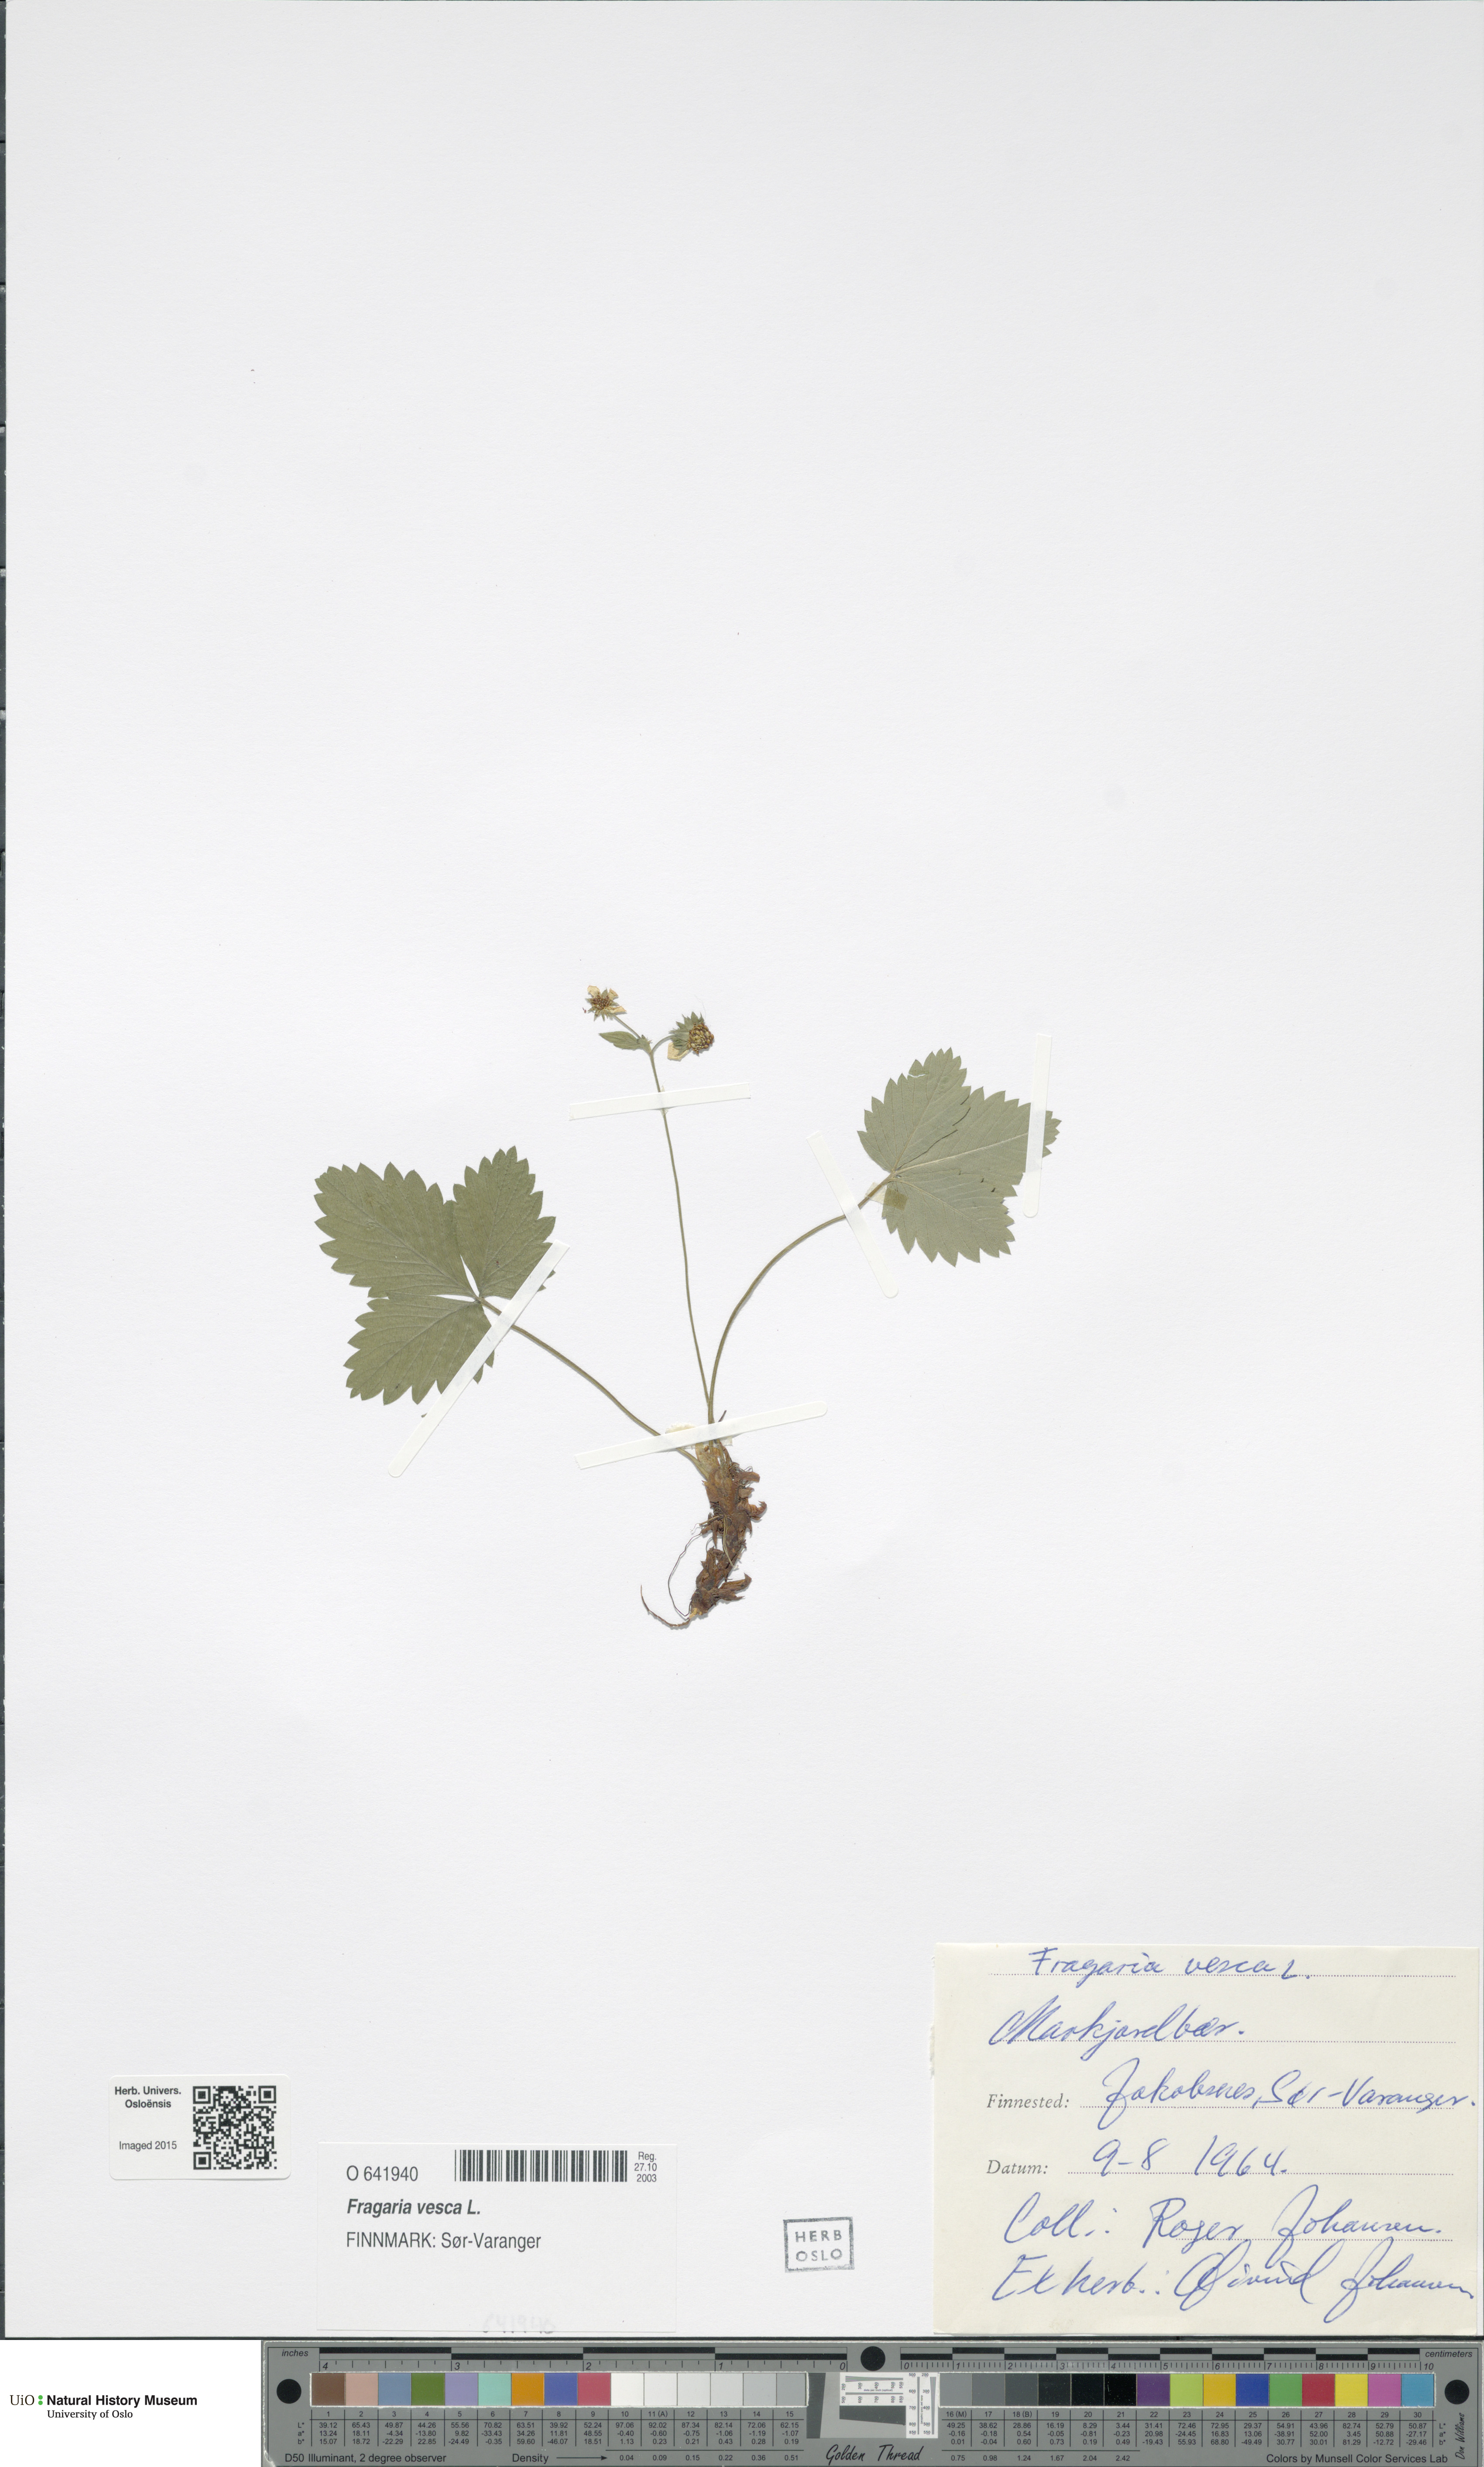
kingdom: Plantae
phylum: Tracheophyta
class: Magnoliopsida
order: Rosales
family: Rosaceae
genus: Fragaria
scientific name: Fragaria vesca
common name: Wild strawberry
